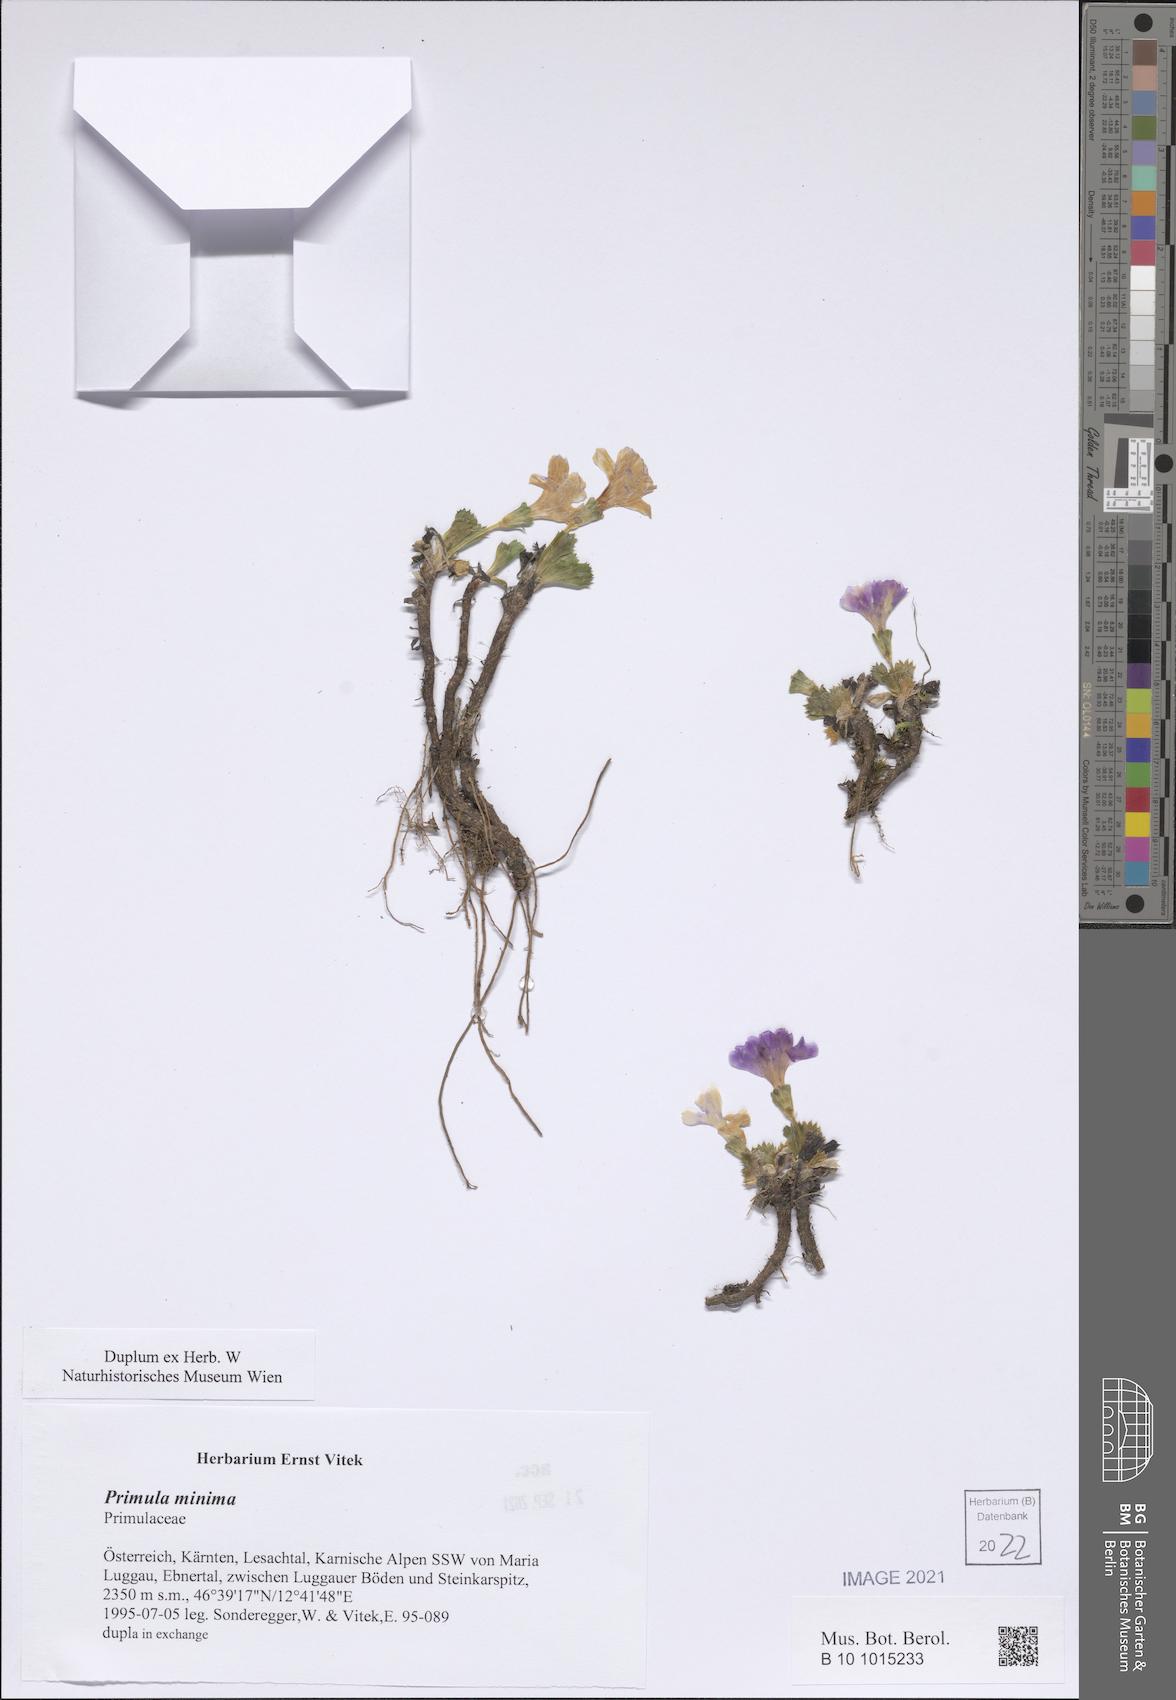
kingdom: Plantae
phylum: Tracheophyta
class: Magnoliopsida
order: Ericales
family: Primulaceae
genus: Primula
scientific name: Primula minima
